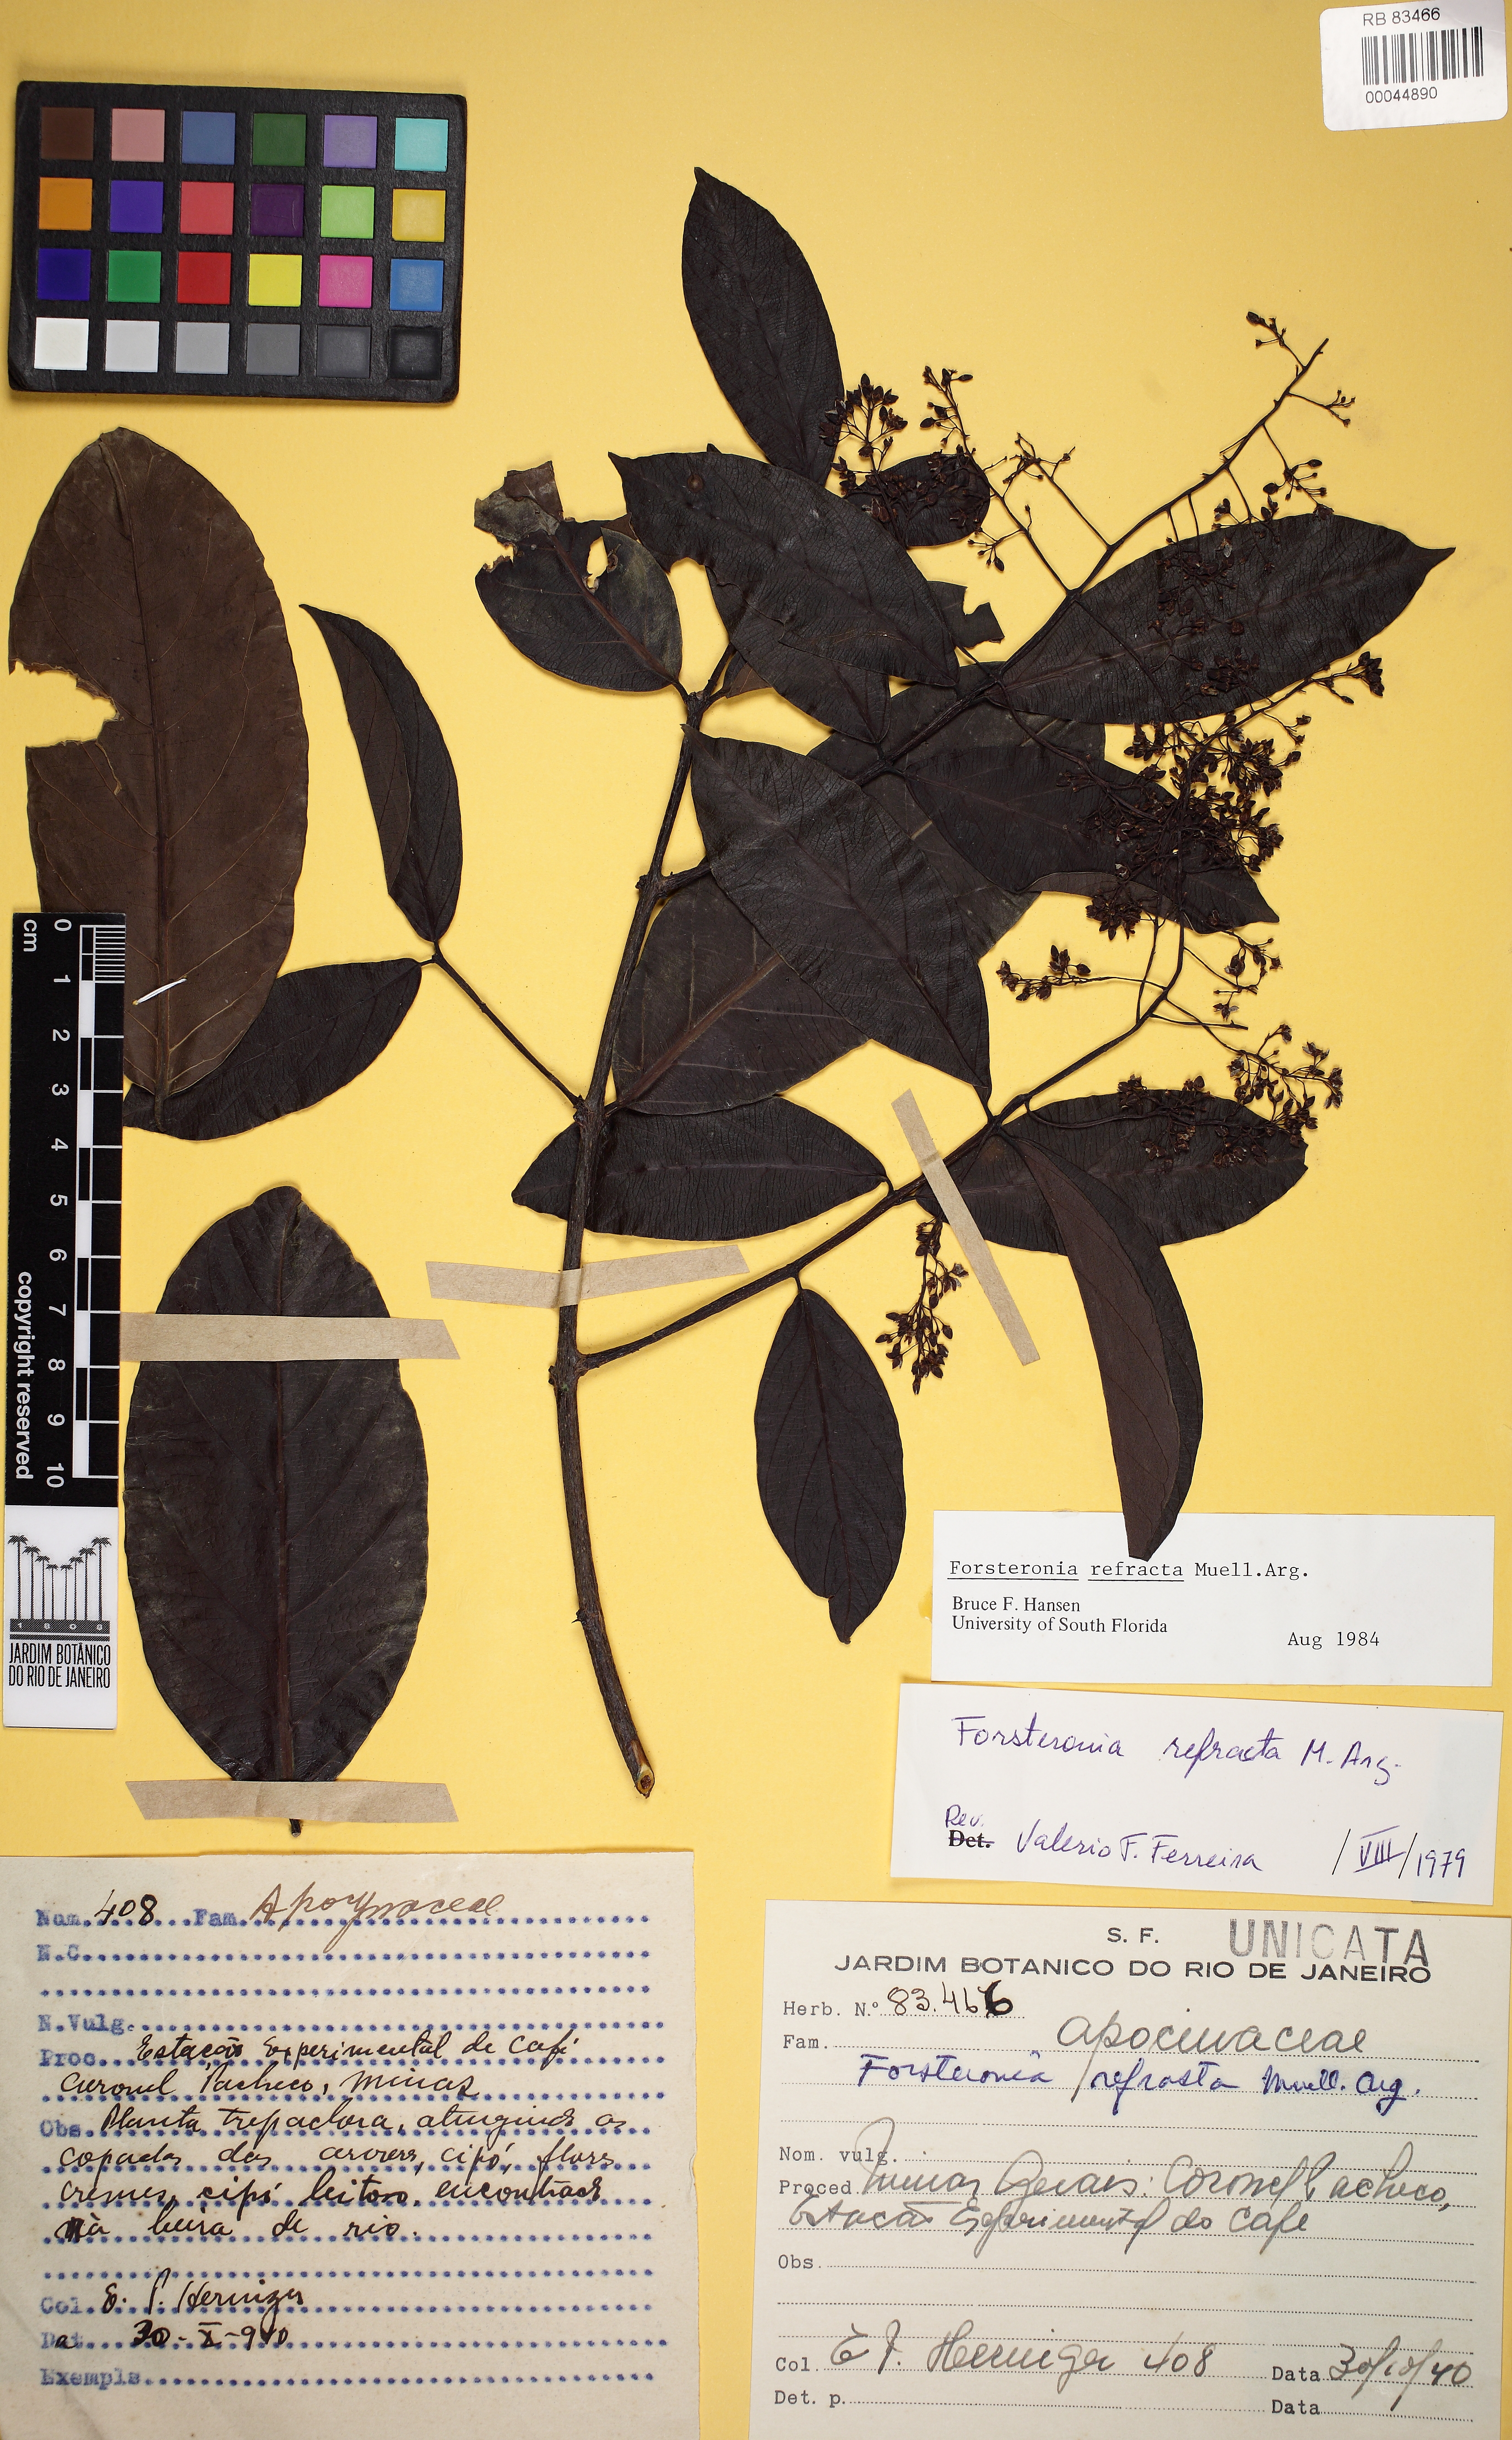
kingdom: Plantae
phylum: Tracheophyta
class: Magnoliopsida
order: Gentianales
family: Apocynaceae
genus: Forsteronia
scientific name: Forsteronia refracta
